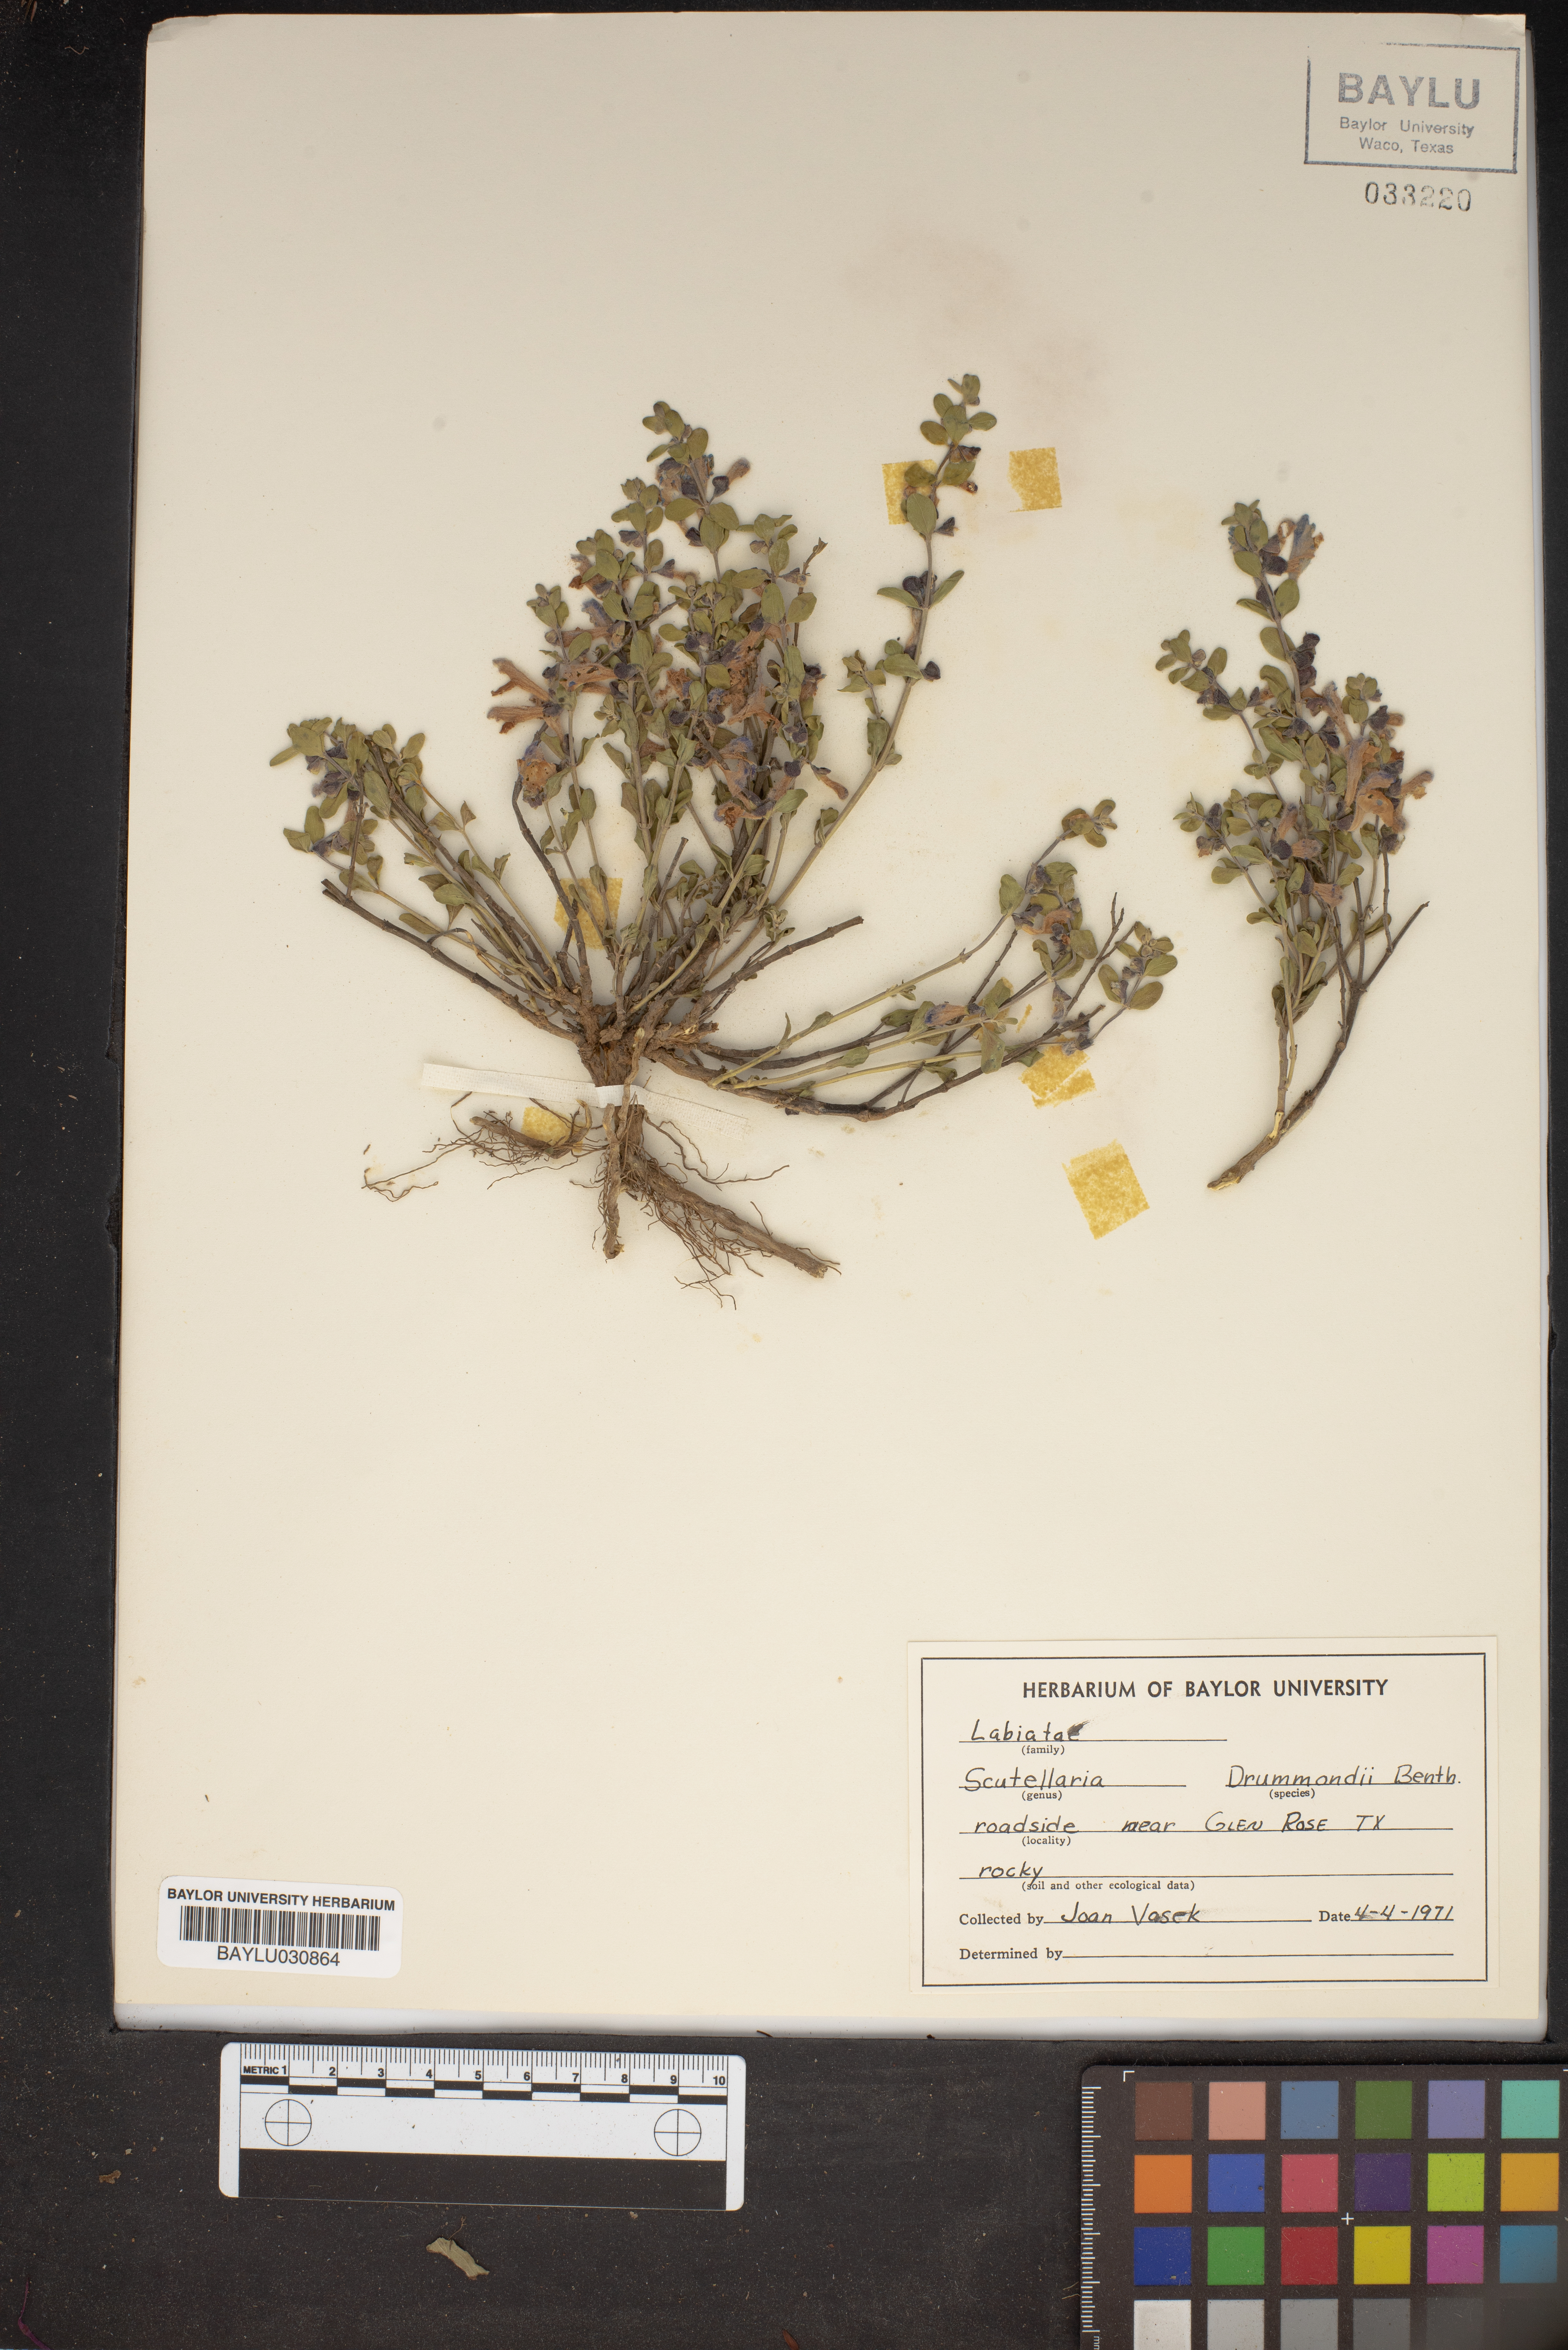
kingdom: Plantae
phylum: Tracheophyta
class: Magnoliopsida
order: Lamiales
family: Lamiaceae
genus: Scutellaria
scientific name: Scutellaria drummondii
